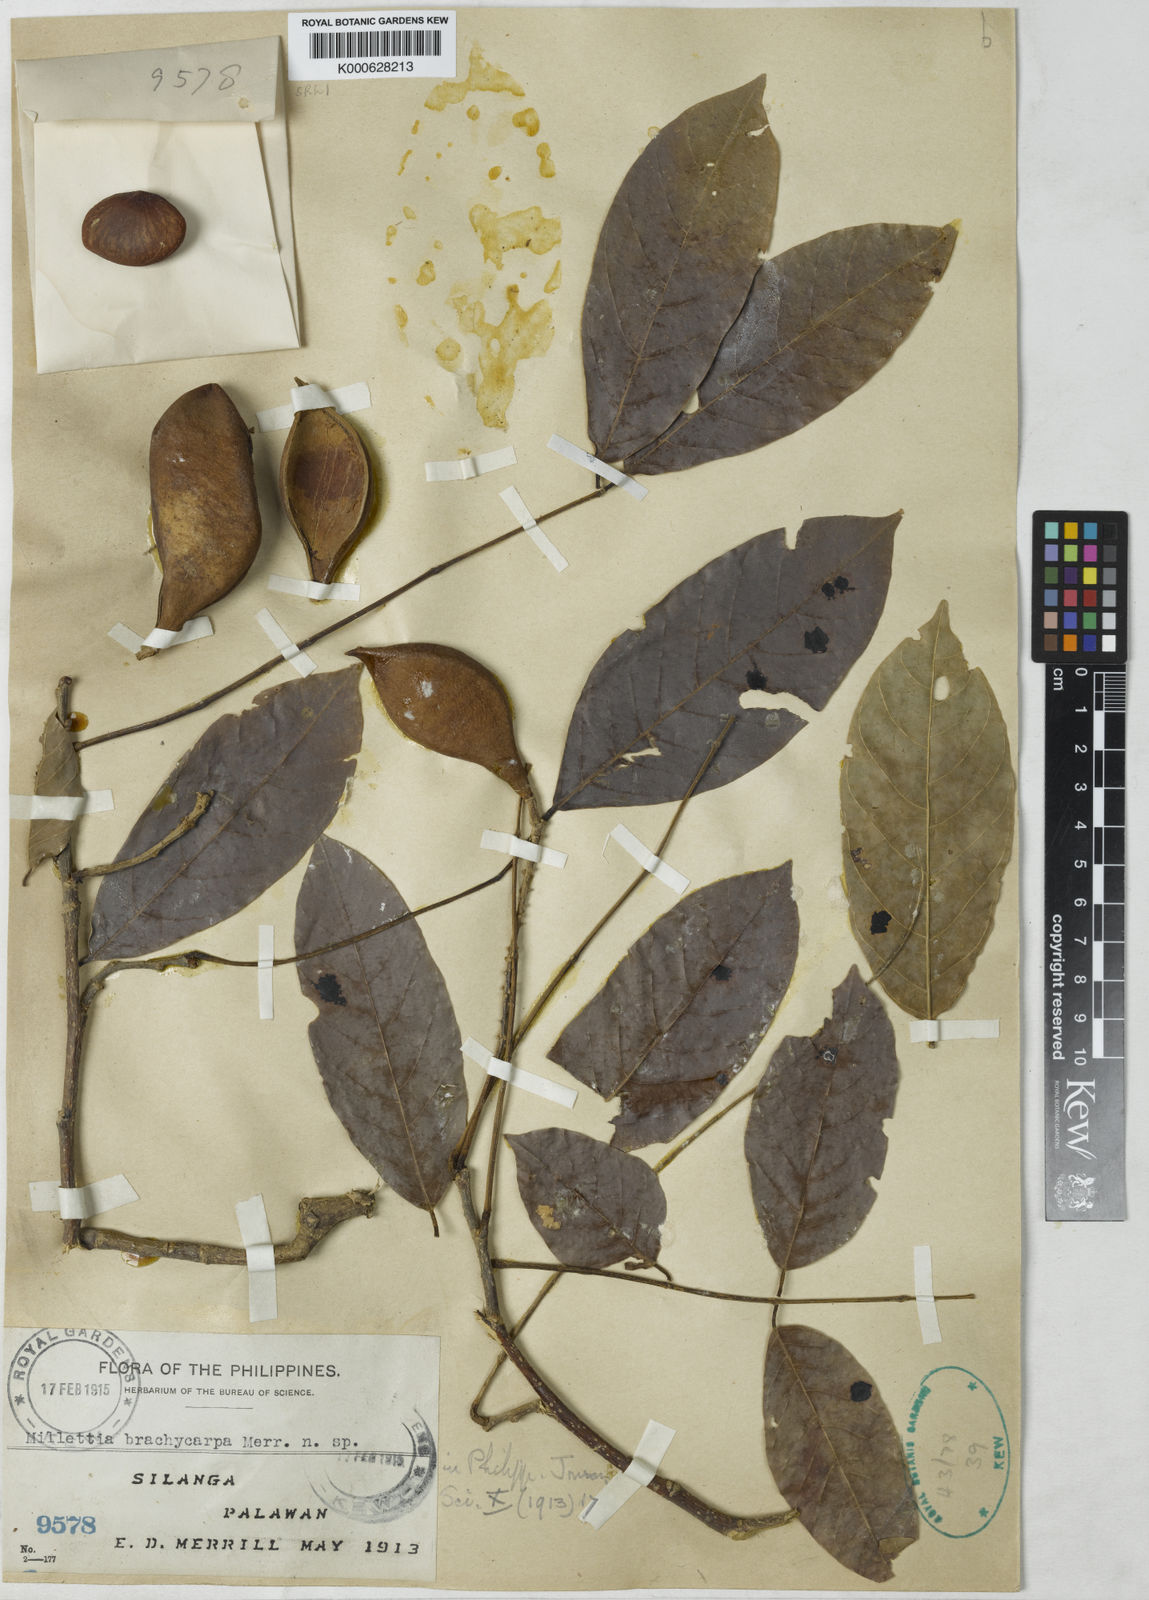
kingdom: Plantae
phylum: Tracheophyta
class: Magnoliopsida
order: Fabales
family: Fabaceae
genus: Millettia
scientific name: Millettia brachycarpa
